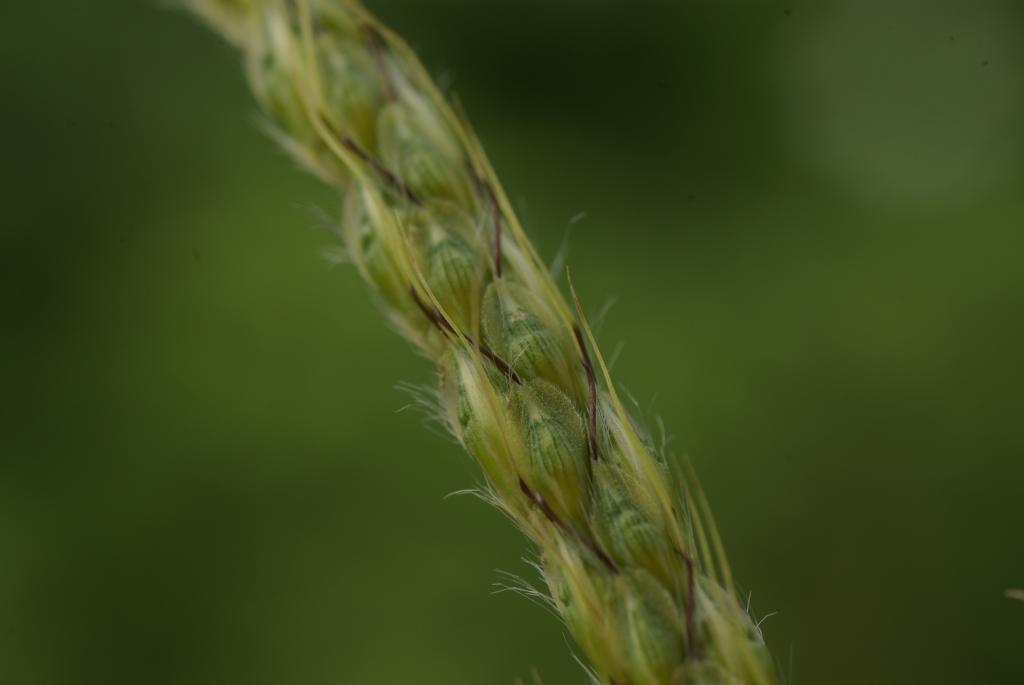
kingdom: Plantae
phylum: Tracheophyta
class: Liliopsida
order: Poales
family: Poaceae
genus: Polytrias
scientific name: Polytrias indica
